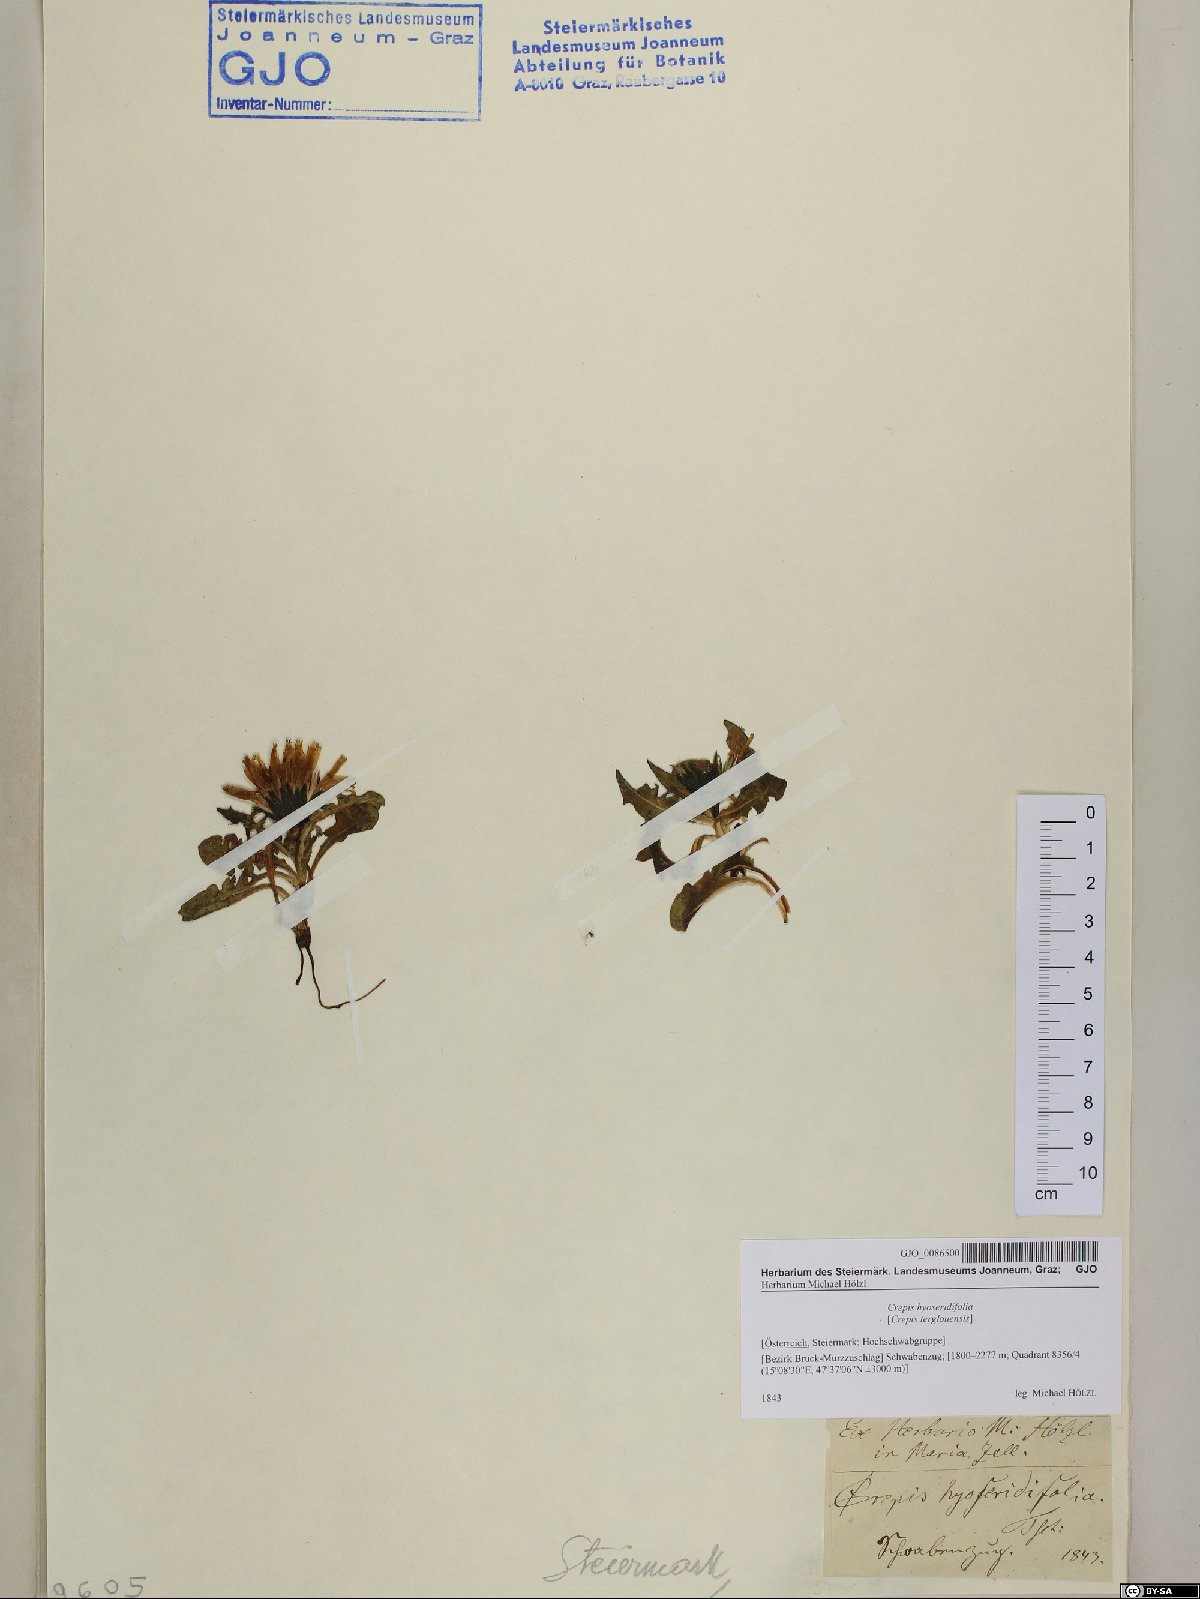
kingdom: Plantae
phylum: Tracheophyta
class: Magnoliopsida
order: Asterales
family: Asteraceae
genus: Crepis
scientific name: Crepis terglouensis
